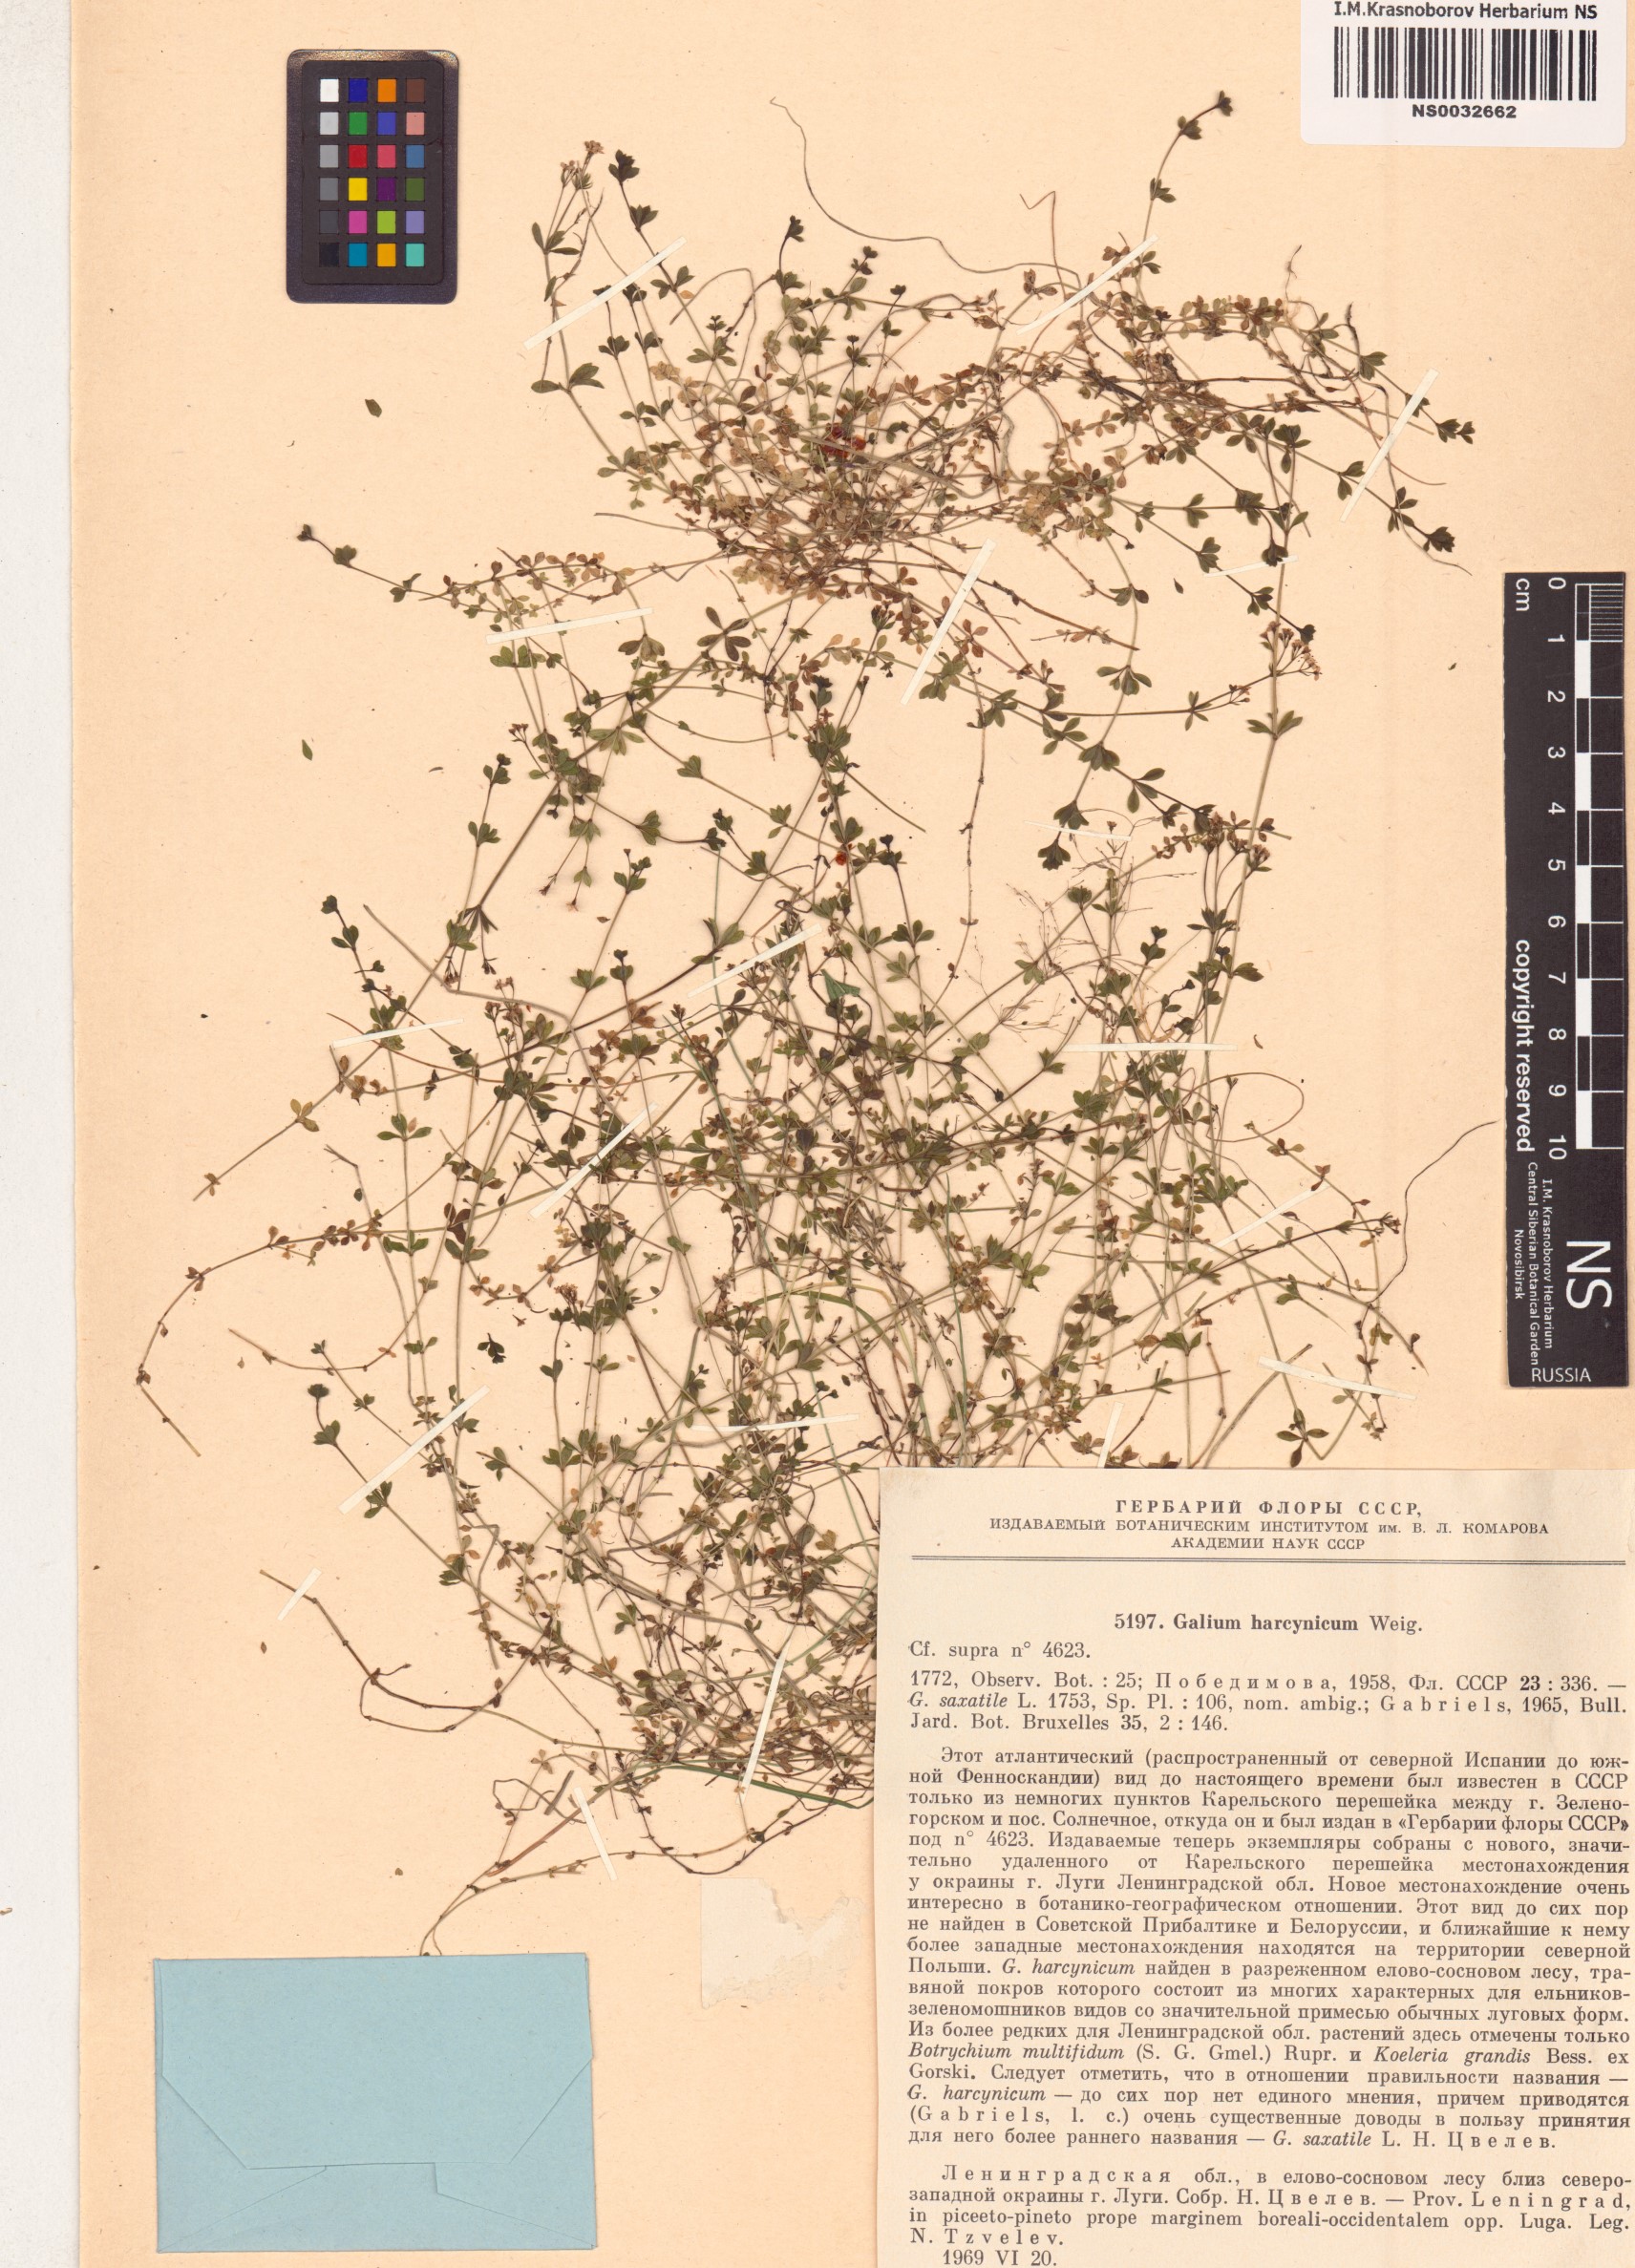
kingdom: Plantae
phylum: Tracheophyta
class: Magnoliopsida
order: Gentianales
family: Rubiaceae
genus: Galium
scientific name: Galium saxatile
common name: Heath bedstraw
